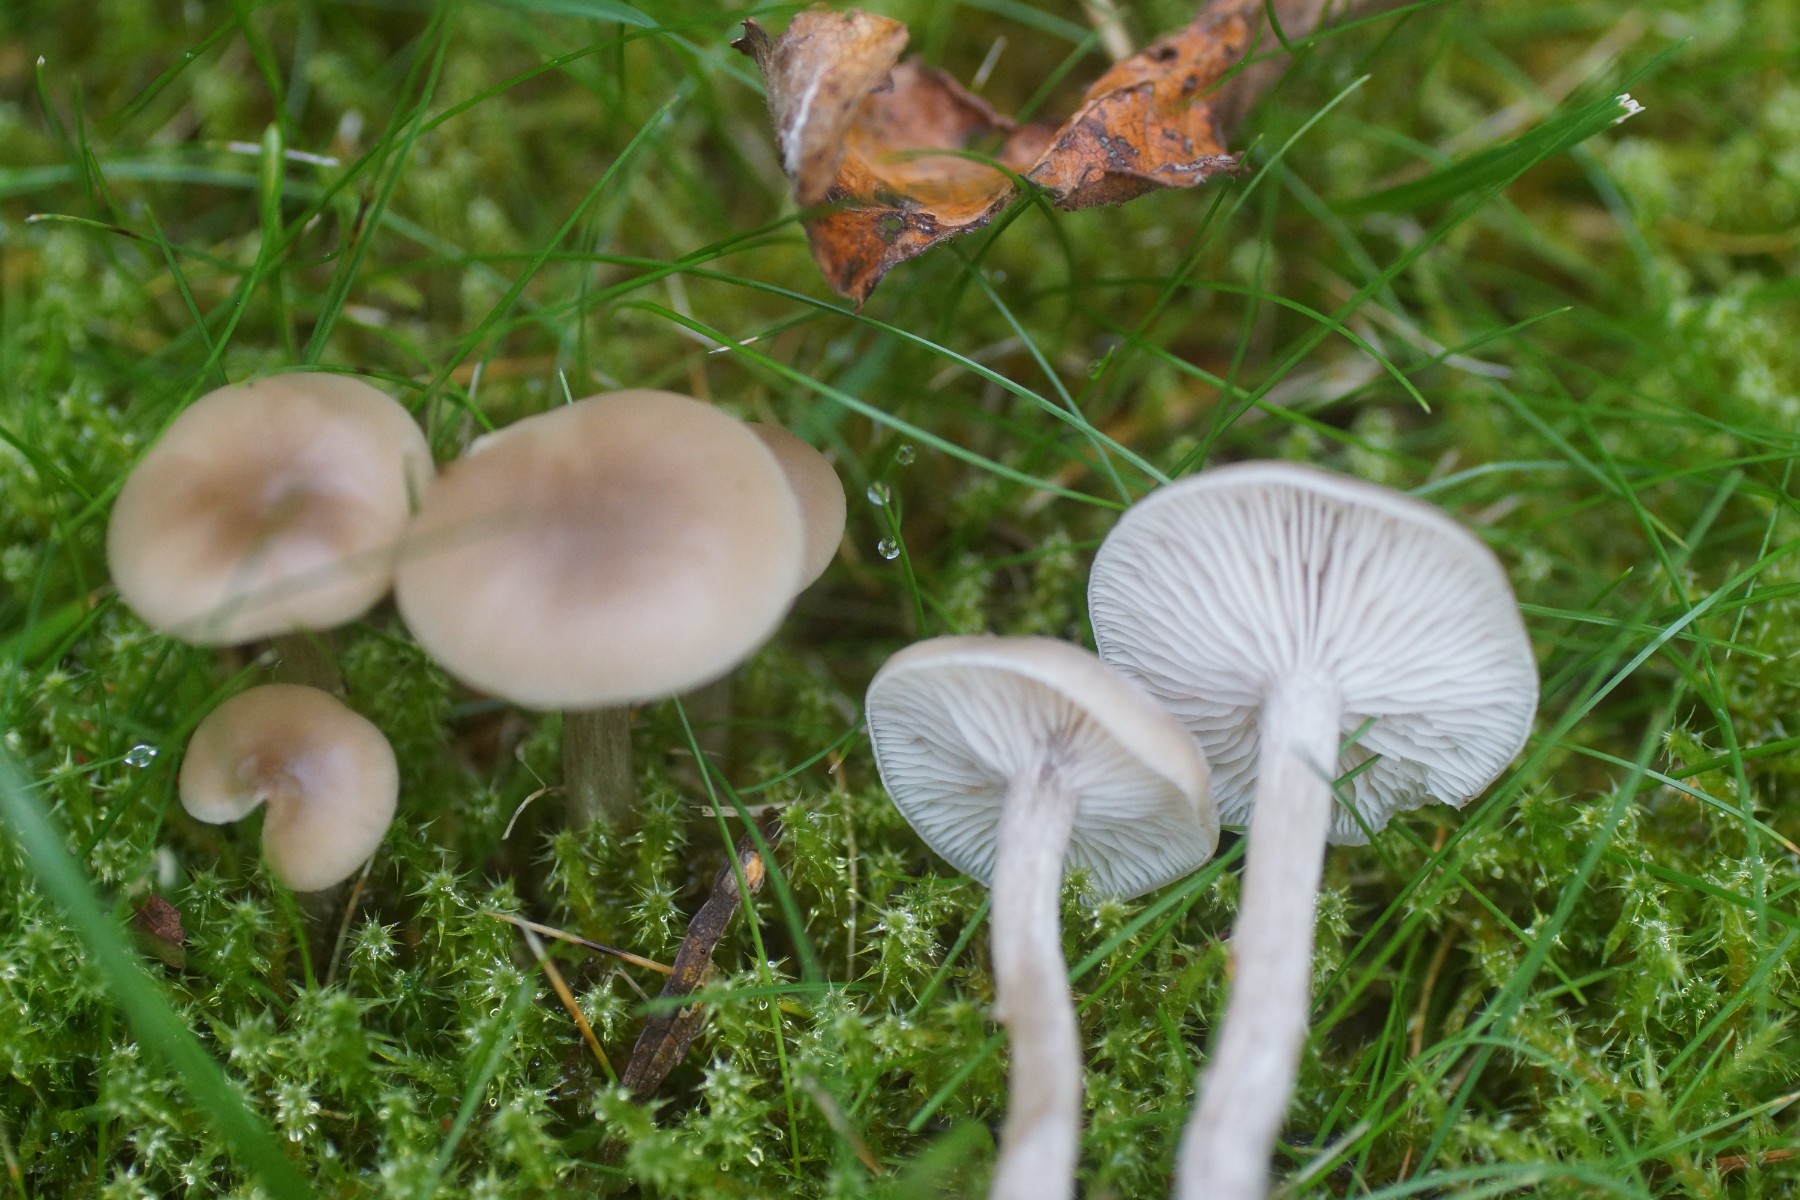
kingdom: Fungi
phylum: Basidiomycota
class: Agaricomycetes
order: Agaricales
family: Tricholomataceae
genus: Clitocybe
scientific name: Clitocybe fragrans
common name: vellugtende tragthat
